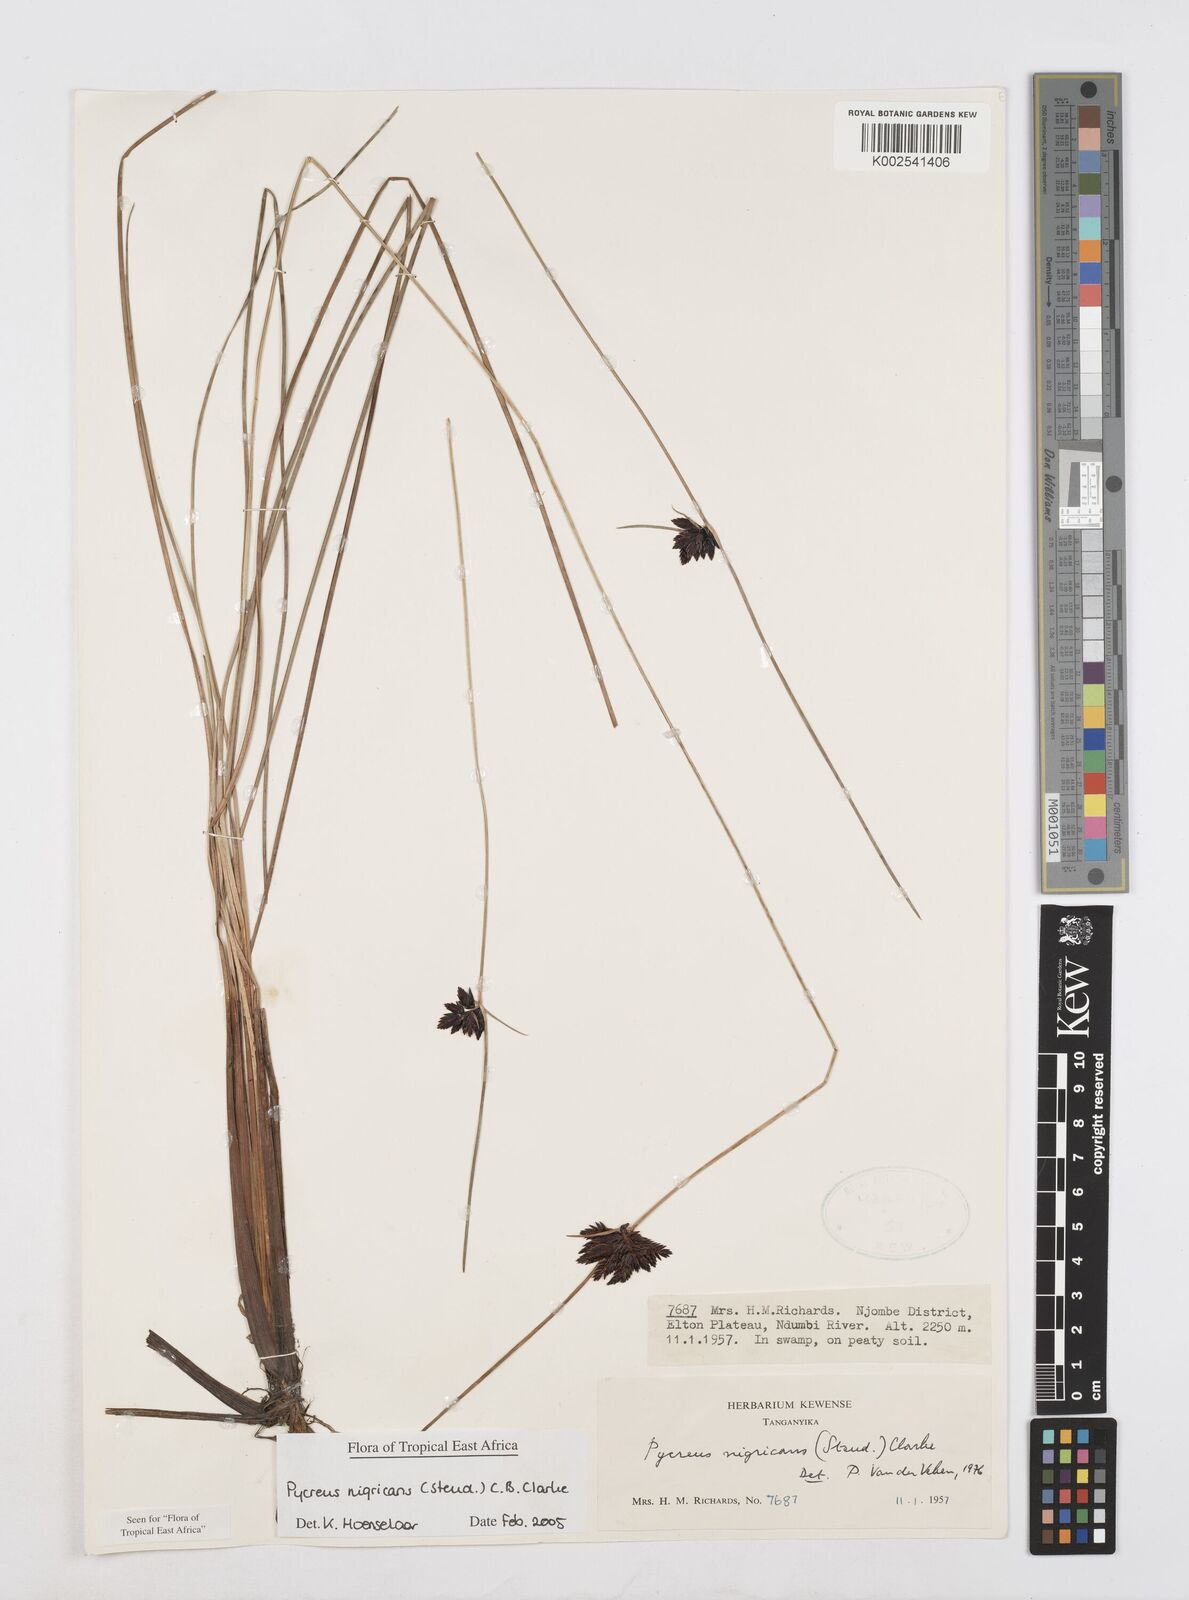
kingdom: Plantae
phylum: Tracheophyta
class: Liliopsida
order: Poales
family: Cyperaceae
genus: Cyperus
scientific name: Cyperus nigricans
